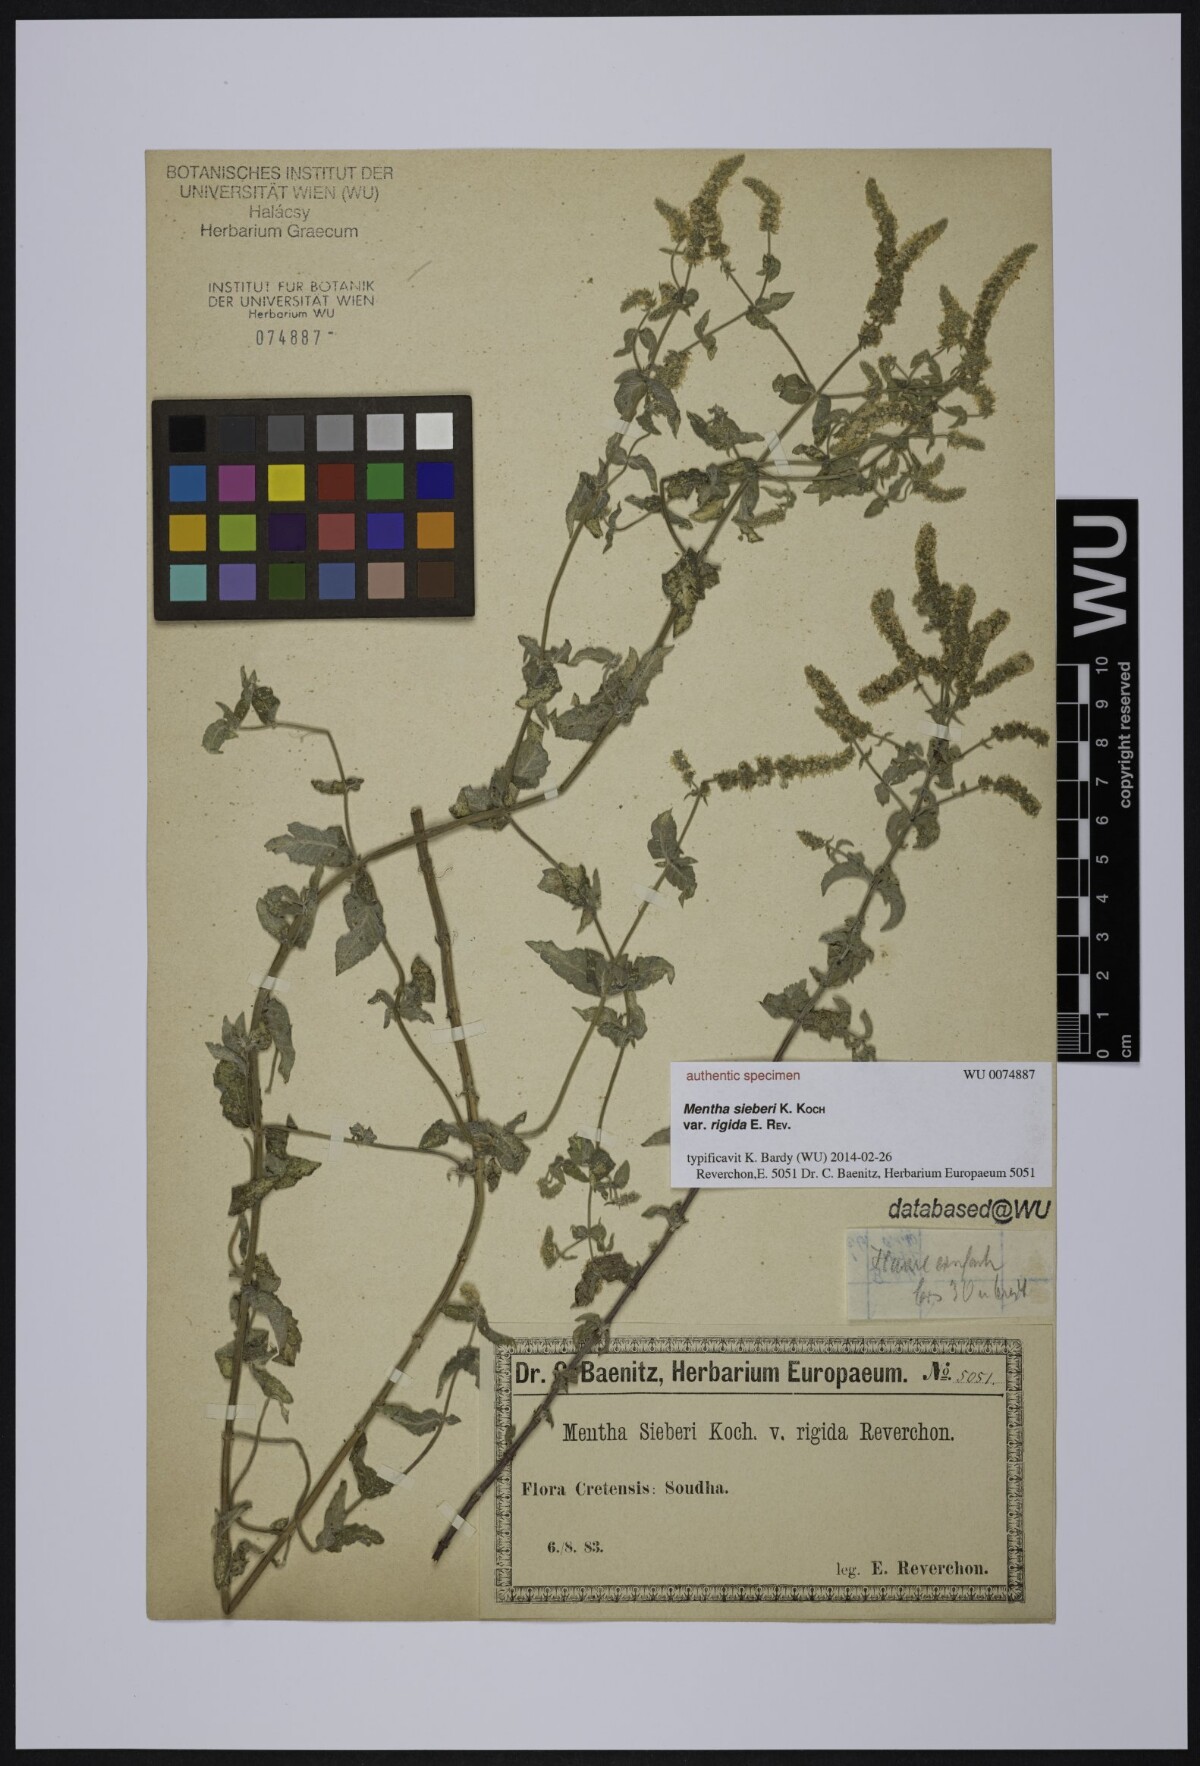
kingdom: Plantae
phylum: Tracheophyta
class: Magnoliopsida
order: Lamiales
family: Lamiaceae
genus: Mentha
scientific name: Mentha spicata
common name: Spearmint
